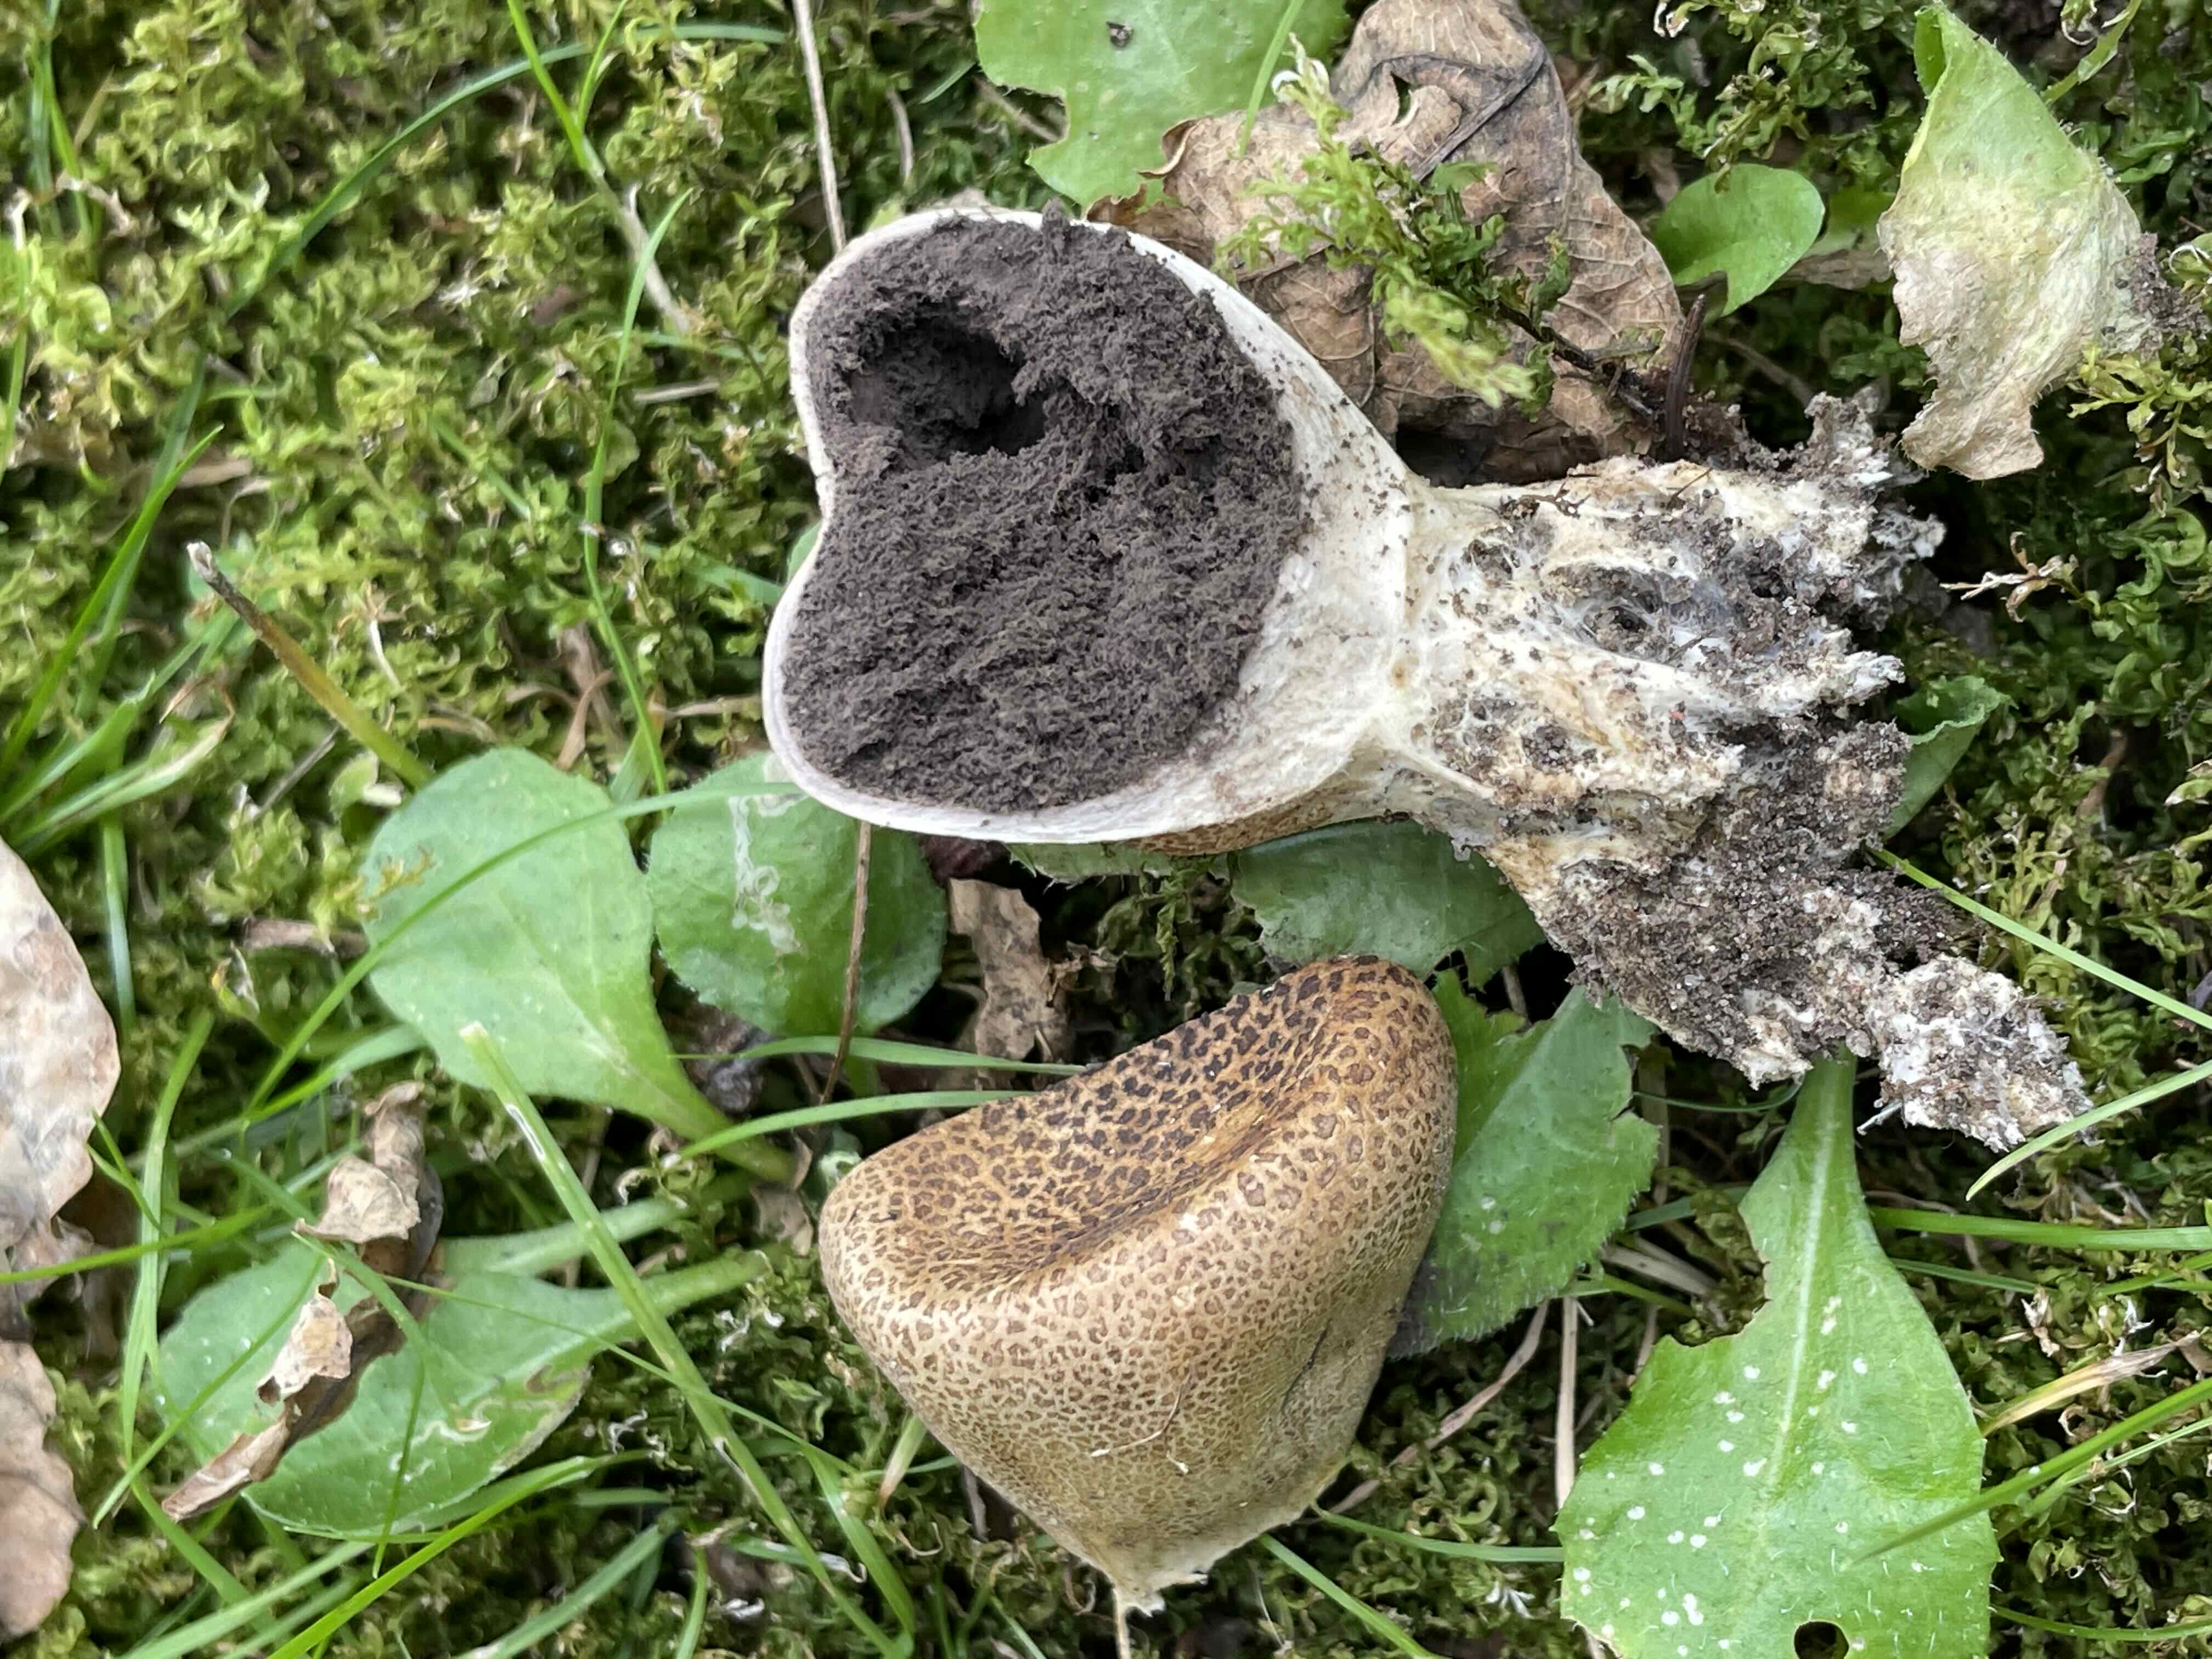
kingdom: Fungi
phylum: Basidiomycota
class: Agaricomycetes
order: Boletales
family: Sclerodermataceae
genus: Scleroderma
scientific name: Scleroderma verrucosum
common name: stilket bruskbold
